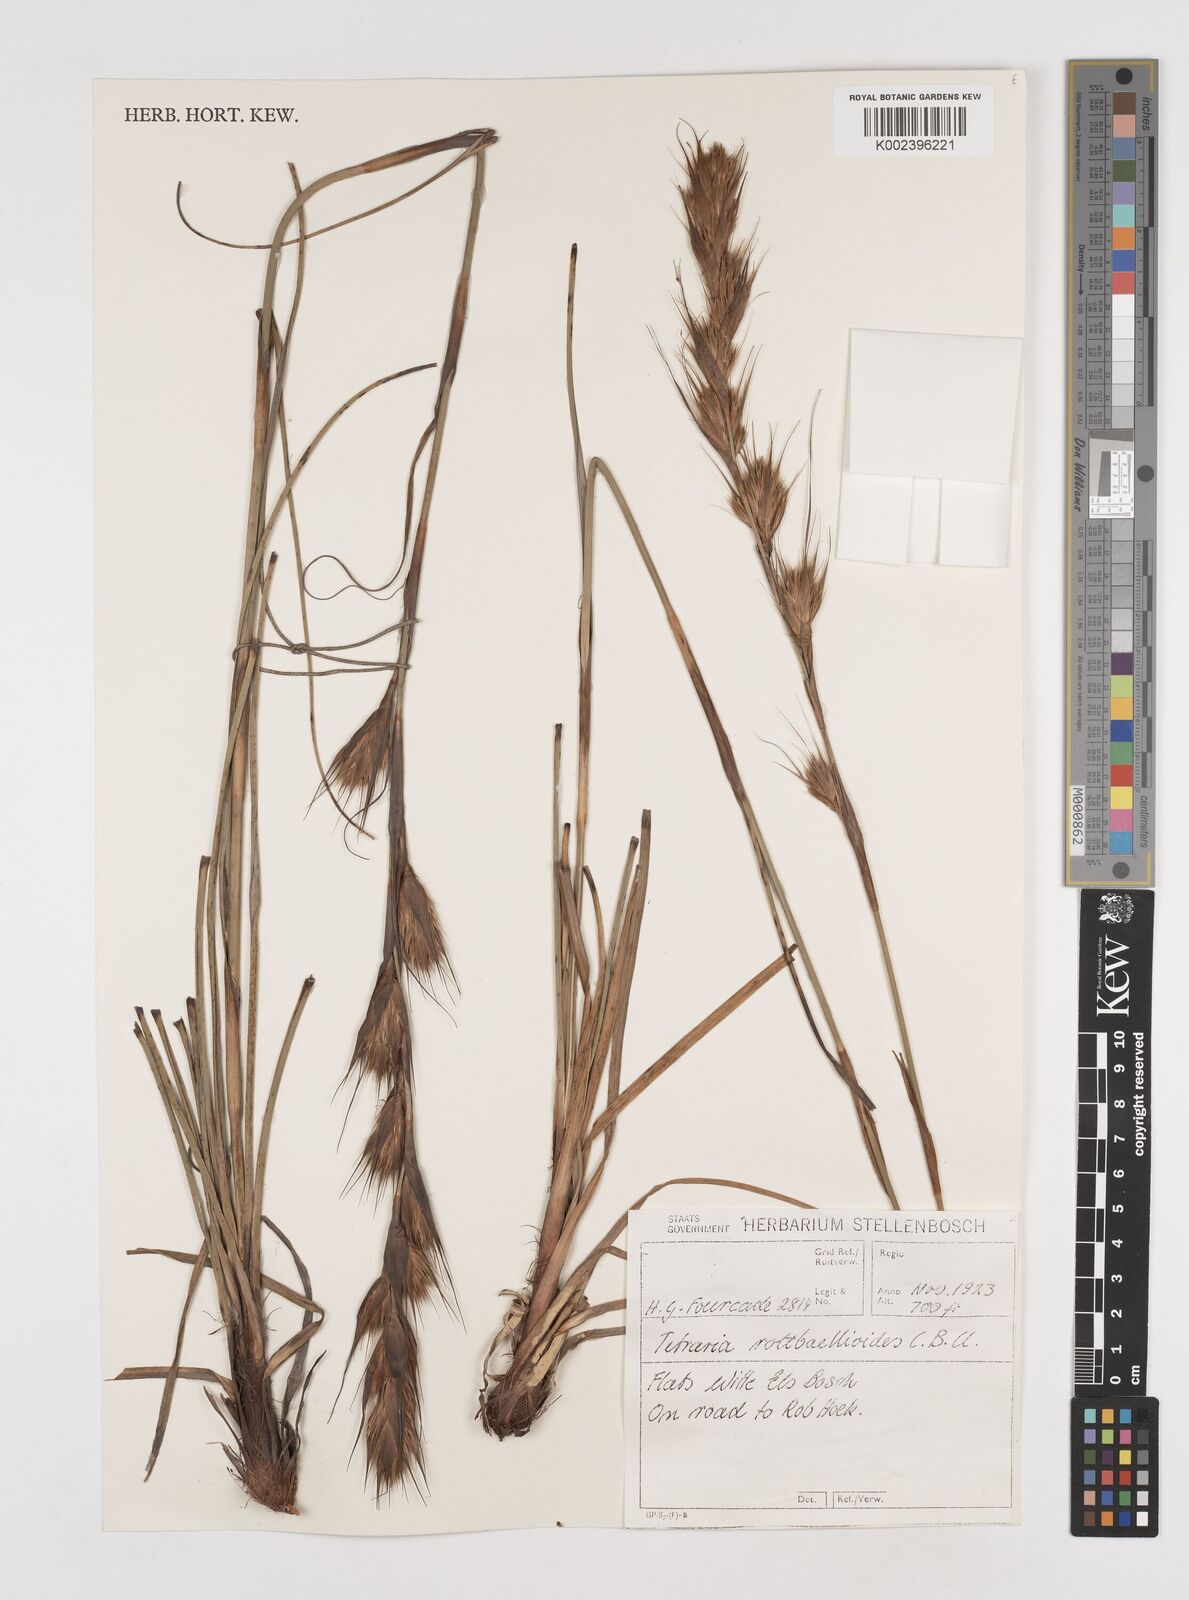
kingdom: Plantae
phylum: Tracheophyta
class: Liliopsida
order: Poales
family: Cyperaceae
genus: Tetraria
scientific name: Tetraria bromoides
